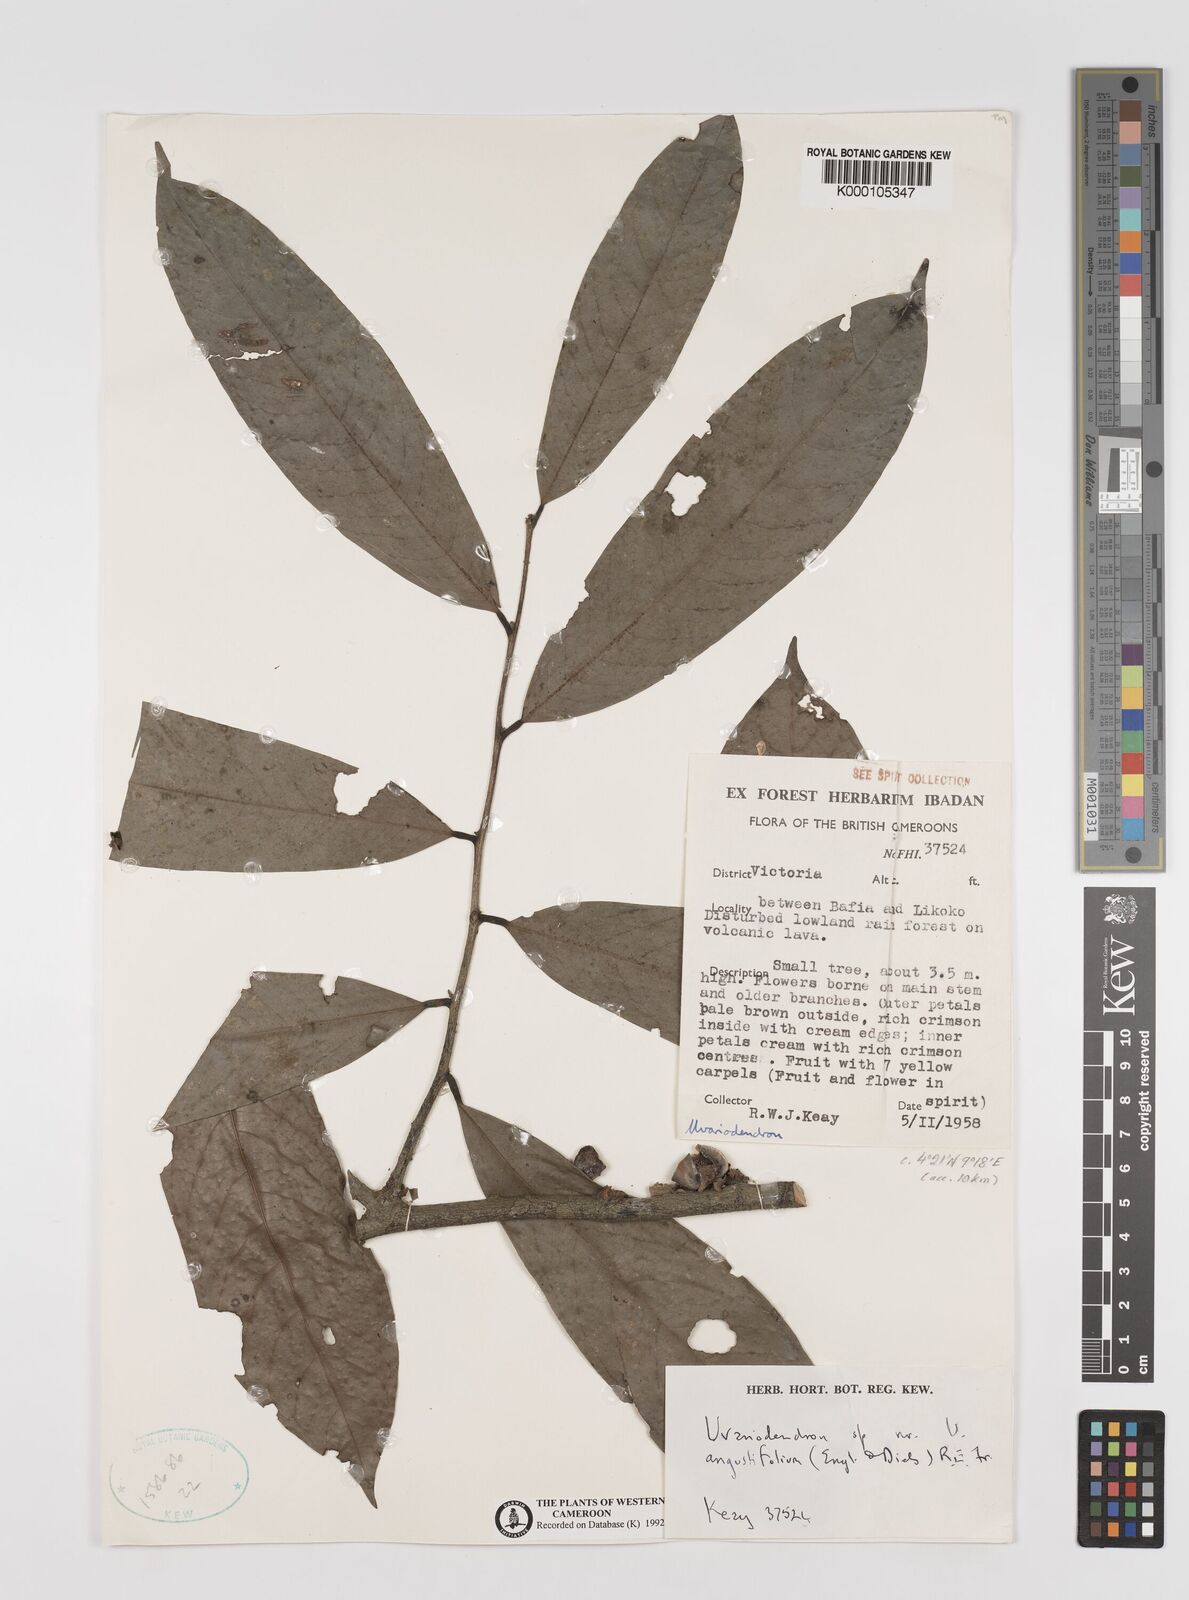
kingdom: Plantae
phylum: Tracheophyta
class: Magnoliopsida
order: Magnoliales
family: Annonaceae
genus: Uvariodendron
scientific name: Uvariodendron angustifolium
